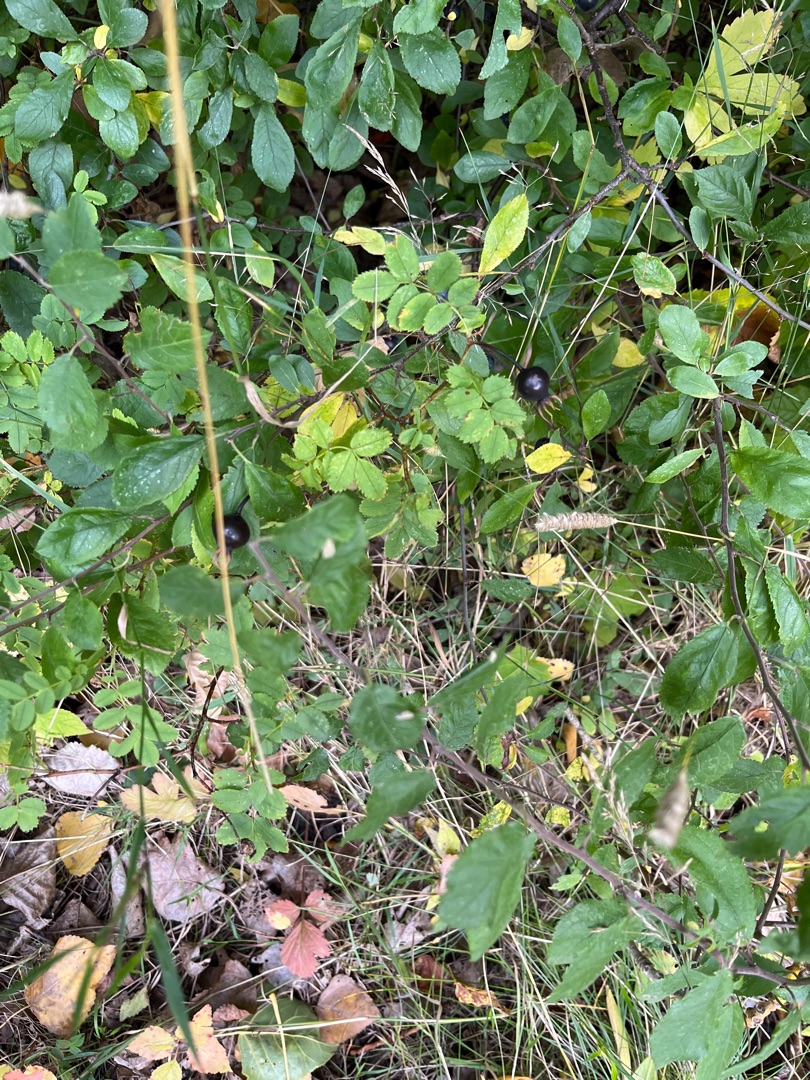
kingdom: Plantae
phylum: Tracheophyta
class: Magnoliopsida
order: Rosales
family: Rosaceae
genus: Rosa
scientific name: Rosa spinosissima
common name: Klit-rose
